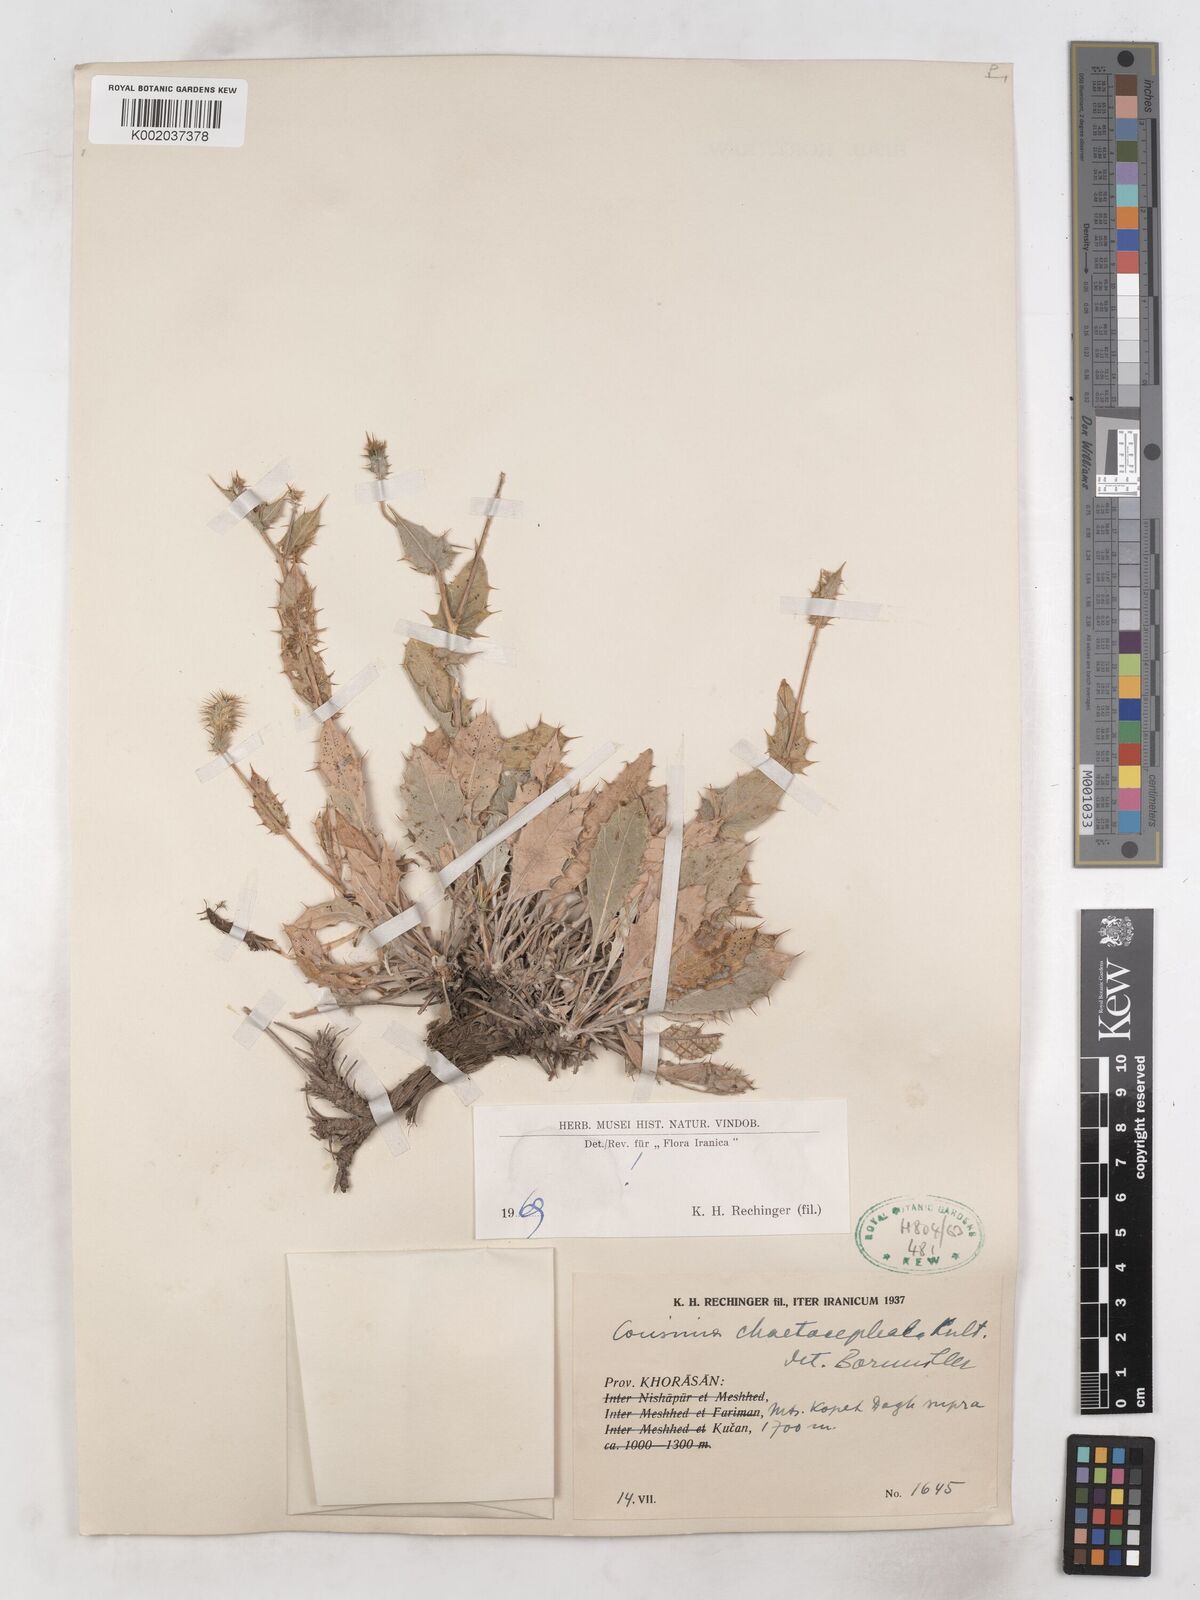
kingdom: Plantae
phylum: Tracheophyta
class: Magnoliopsida
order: Asterales
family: Asteraceae
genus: Cousinia
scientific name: Cousinia chaetocephala
